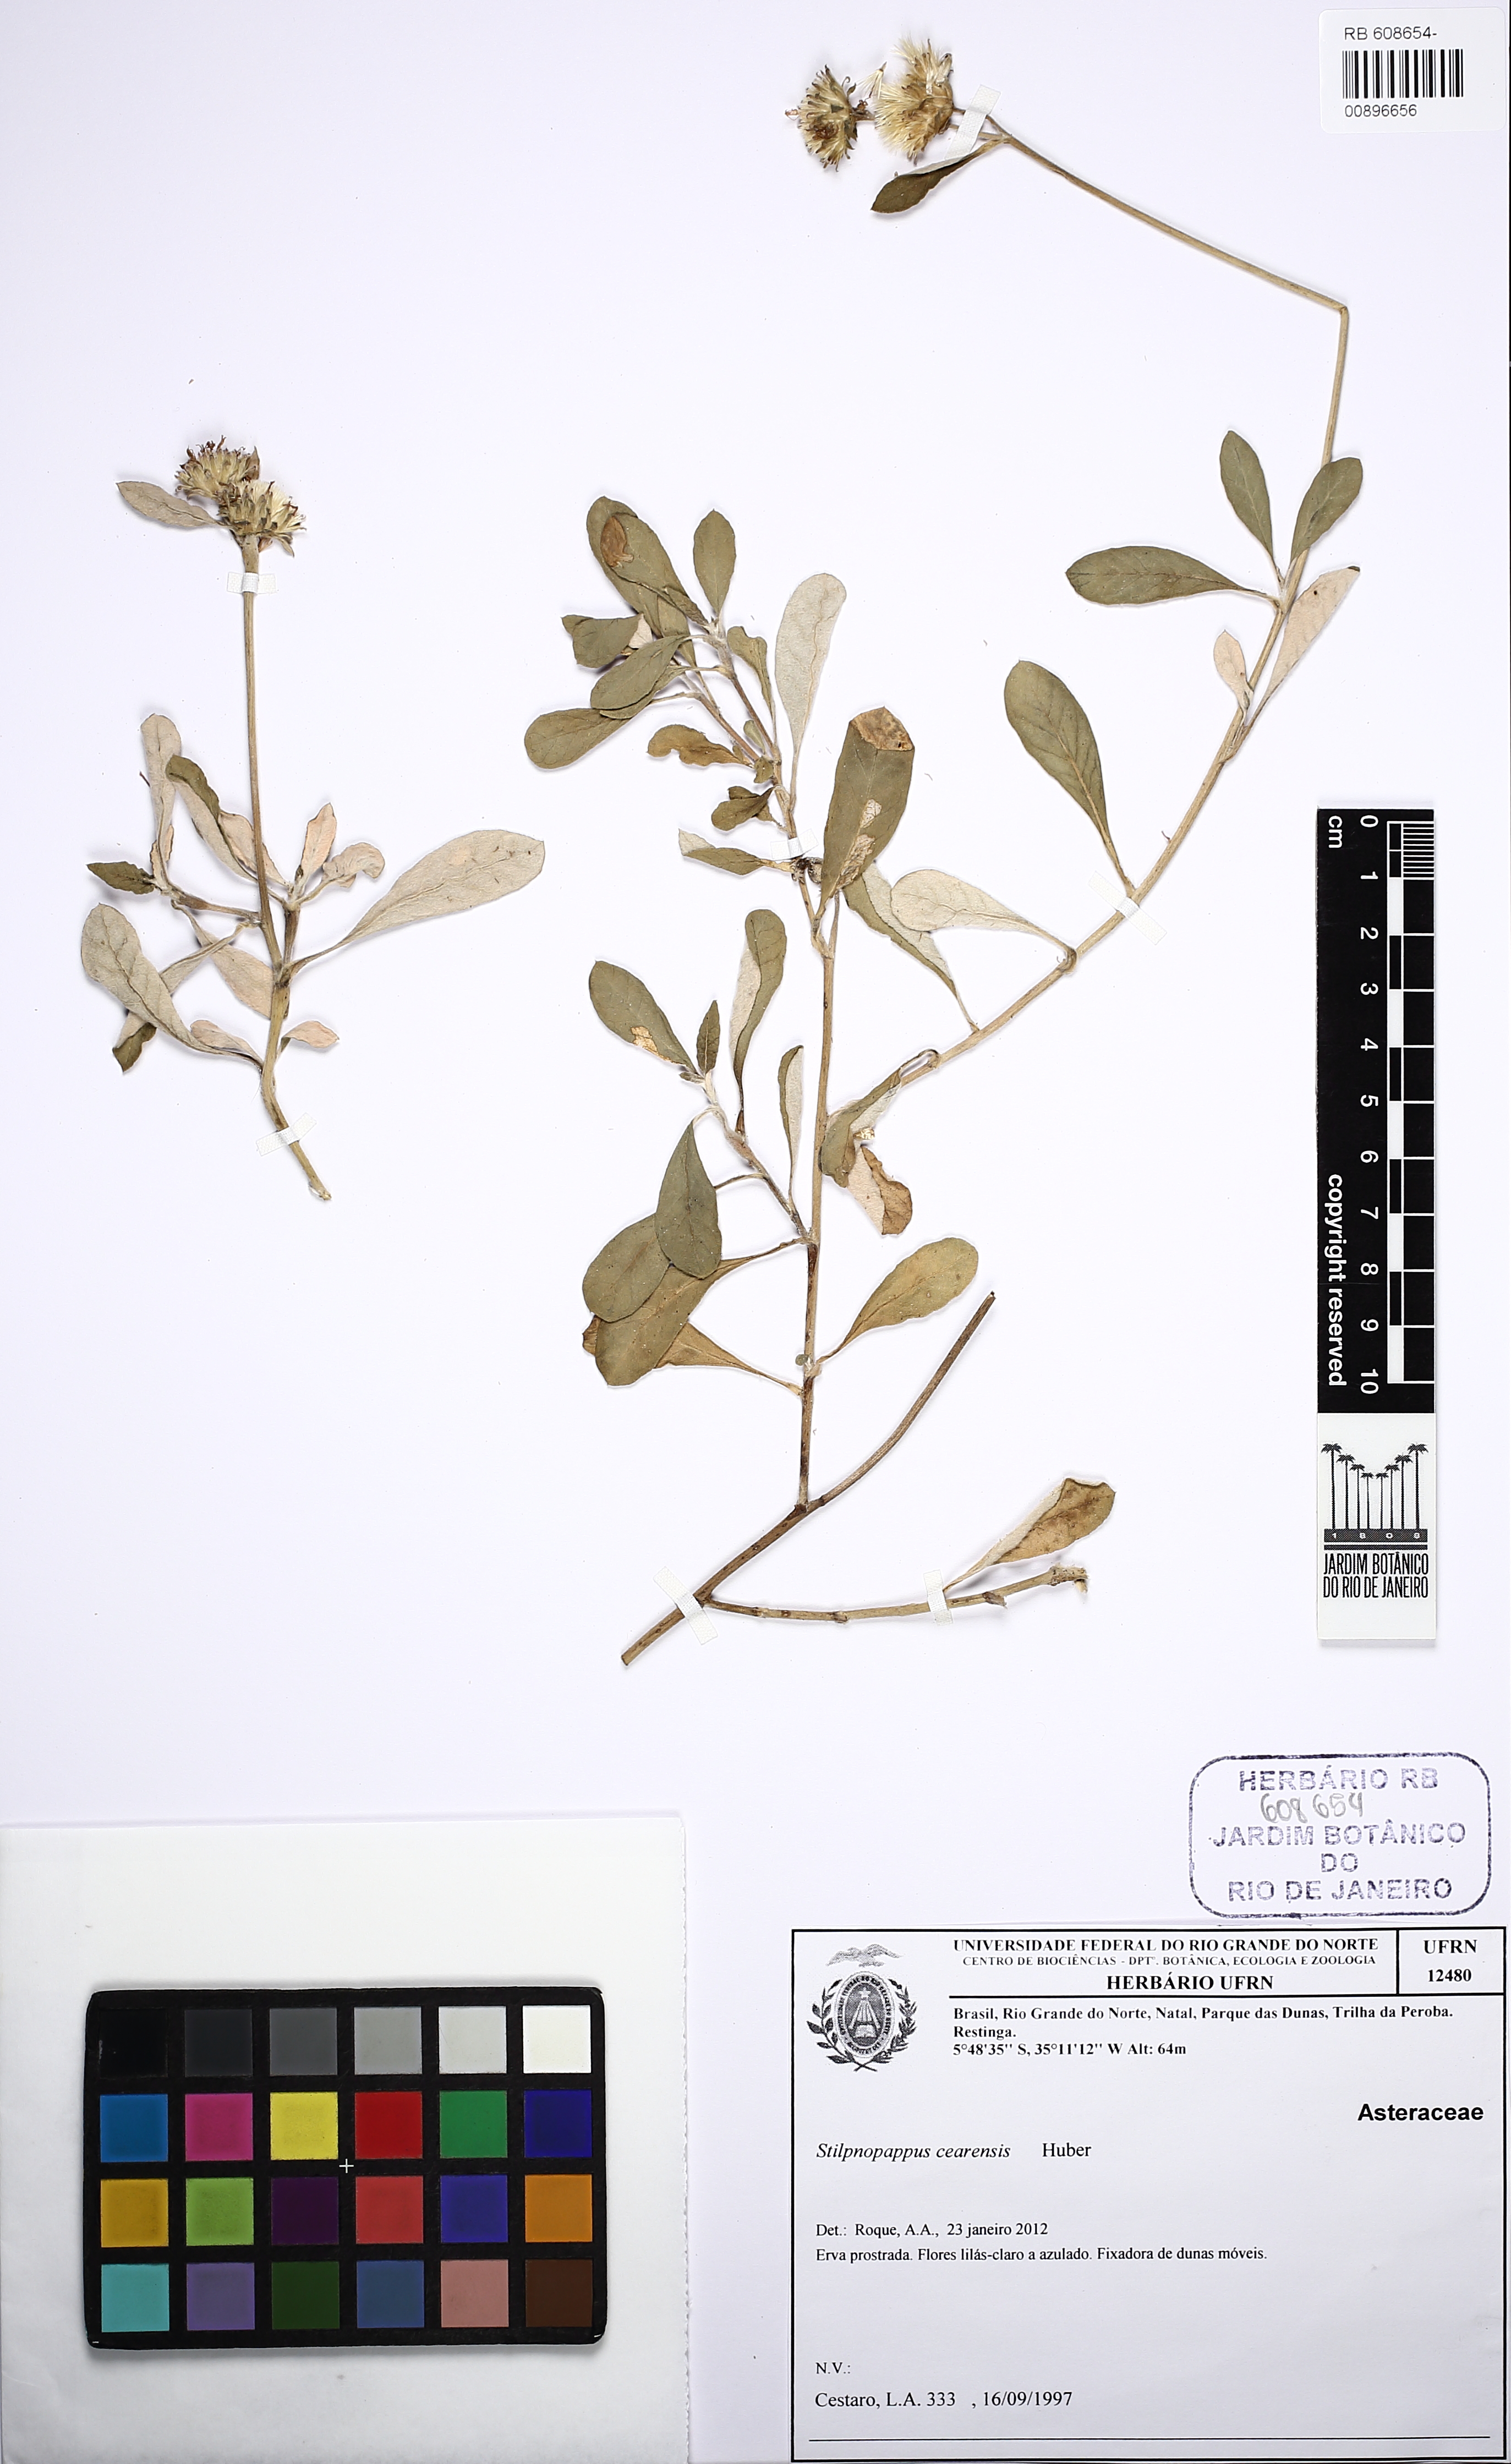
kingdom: Plantae
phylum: Tracheophyta
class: Magnoliopsida
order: Asterales
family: Asteraceae
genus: Stilpnopappus
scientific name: Stilpnopappus cearensis
